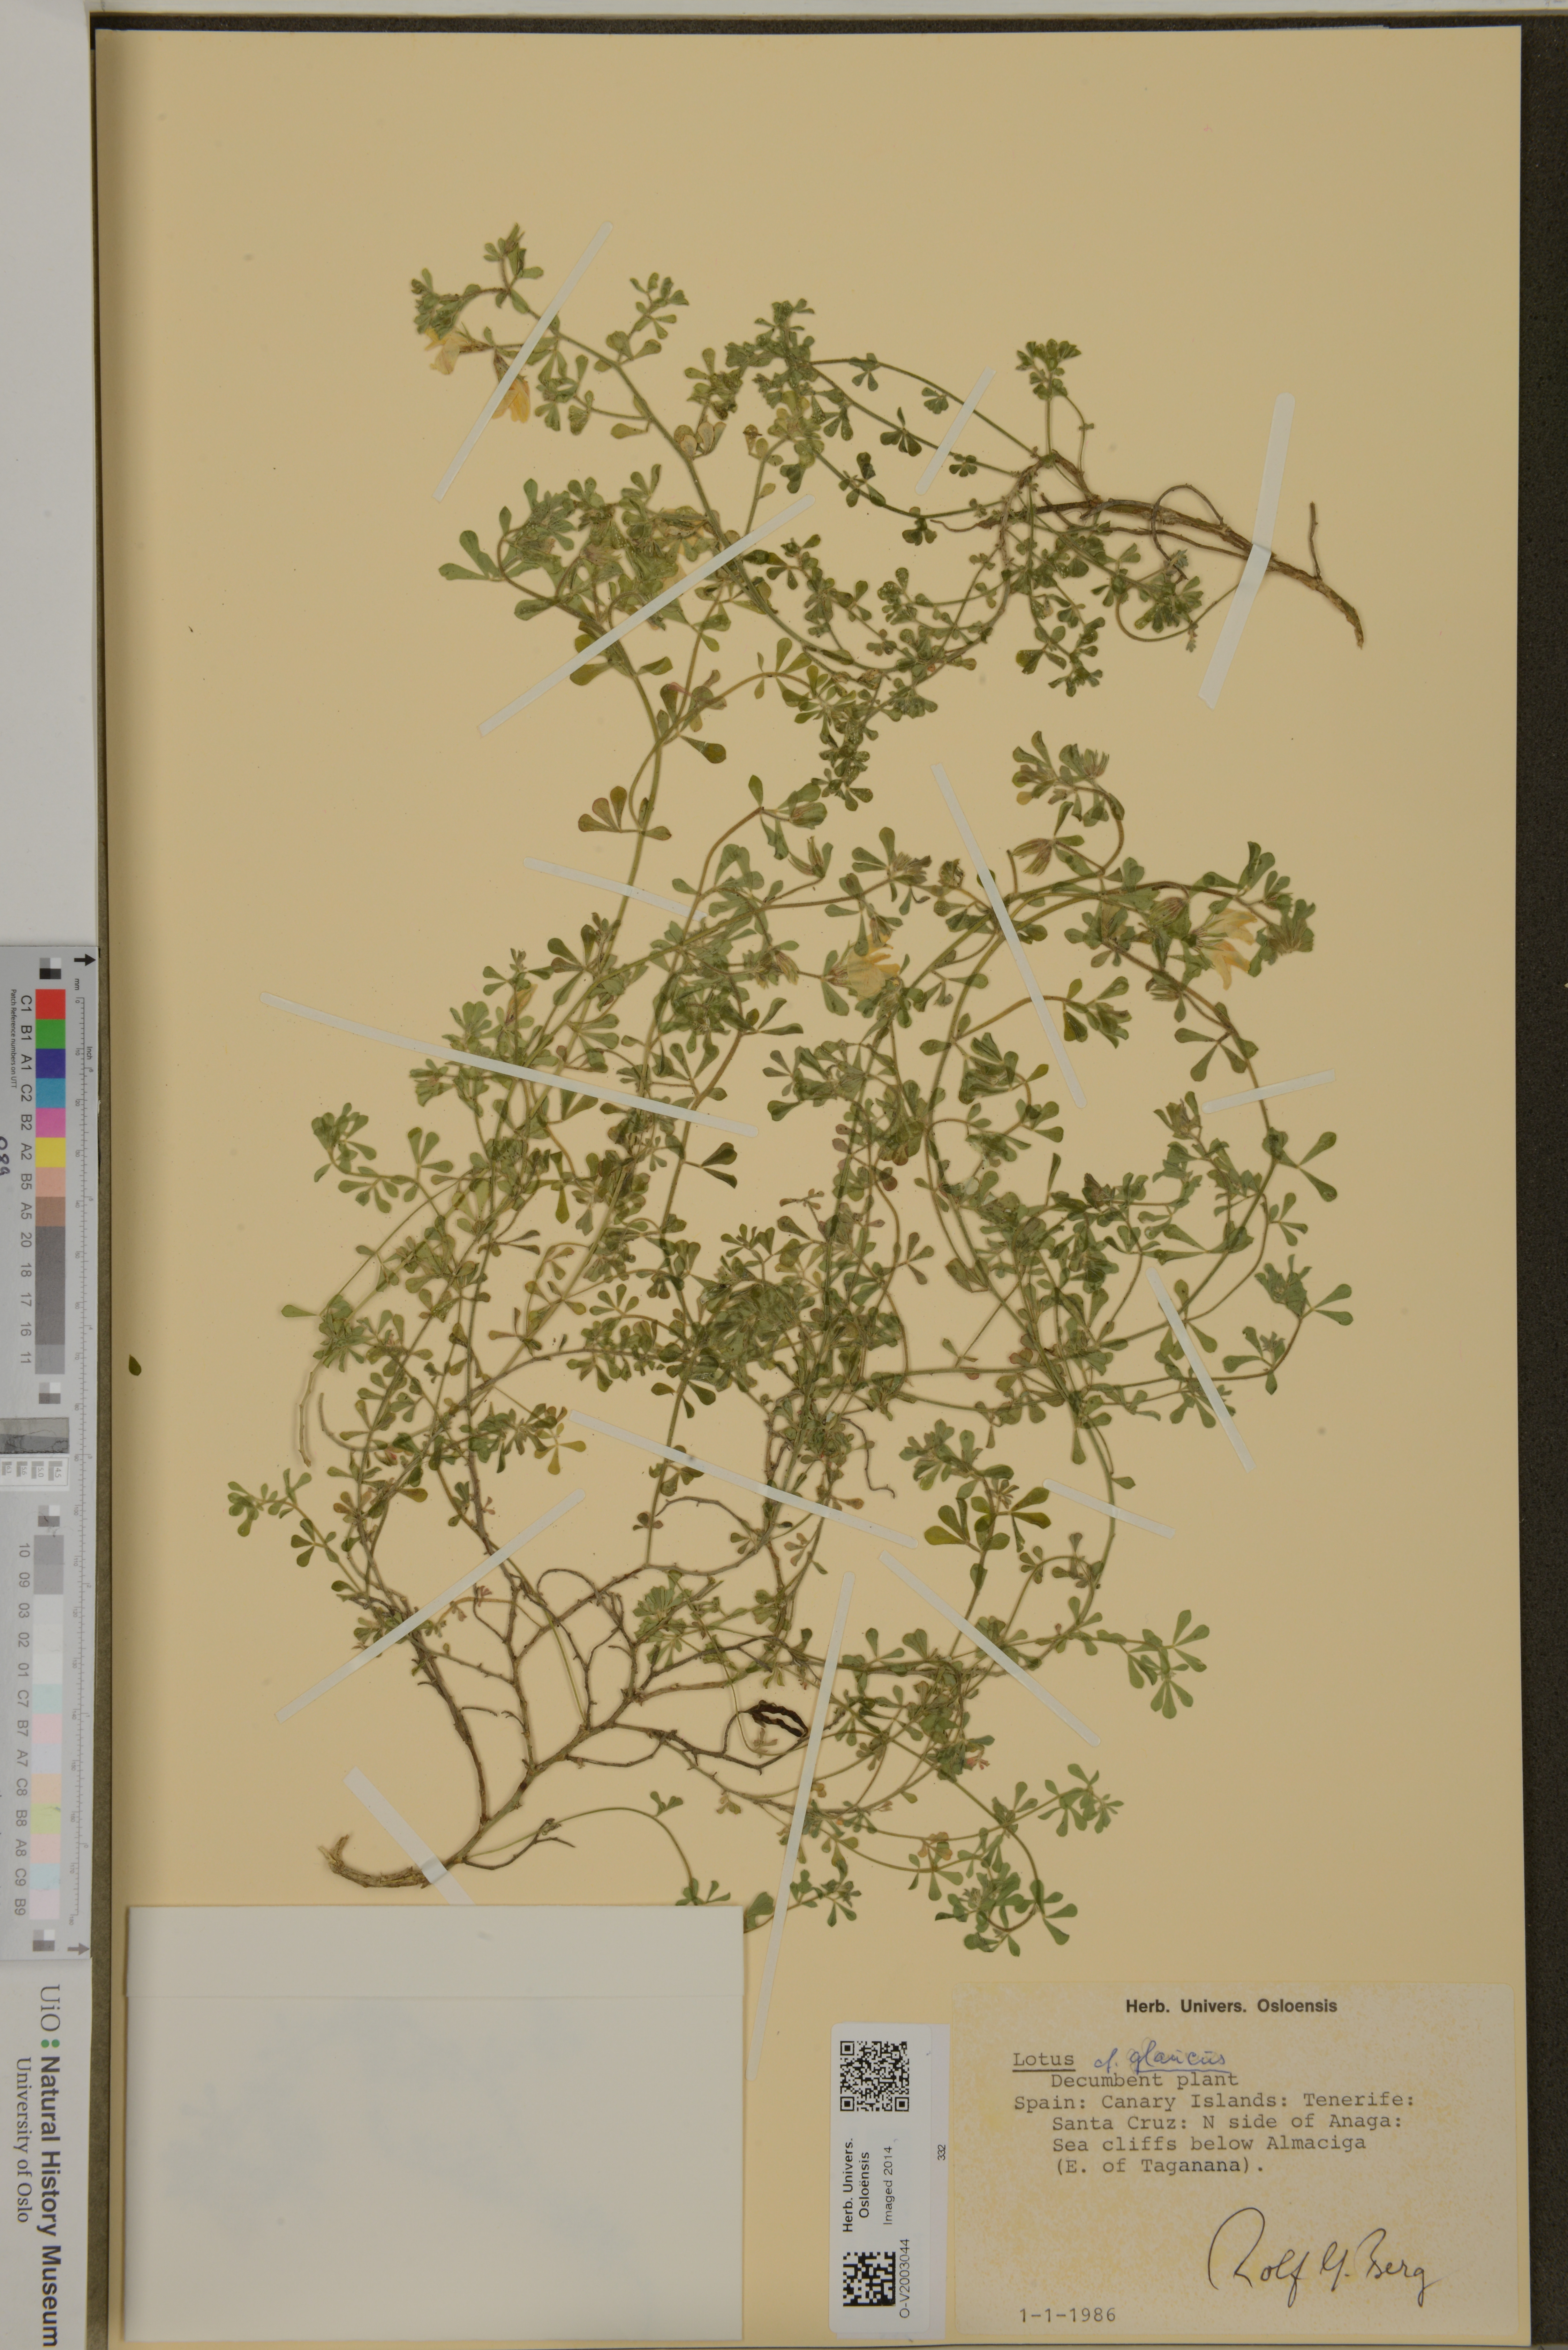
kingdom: Plantae
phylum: Tracheophyta
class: Magnoliopsida
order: Fabales
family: Fabaceae
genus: Lotus
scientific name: Lotus glaucus
